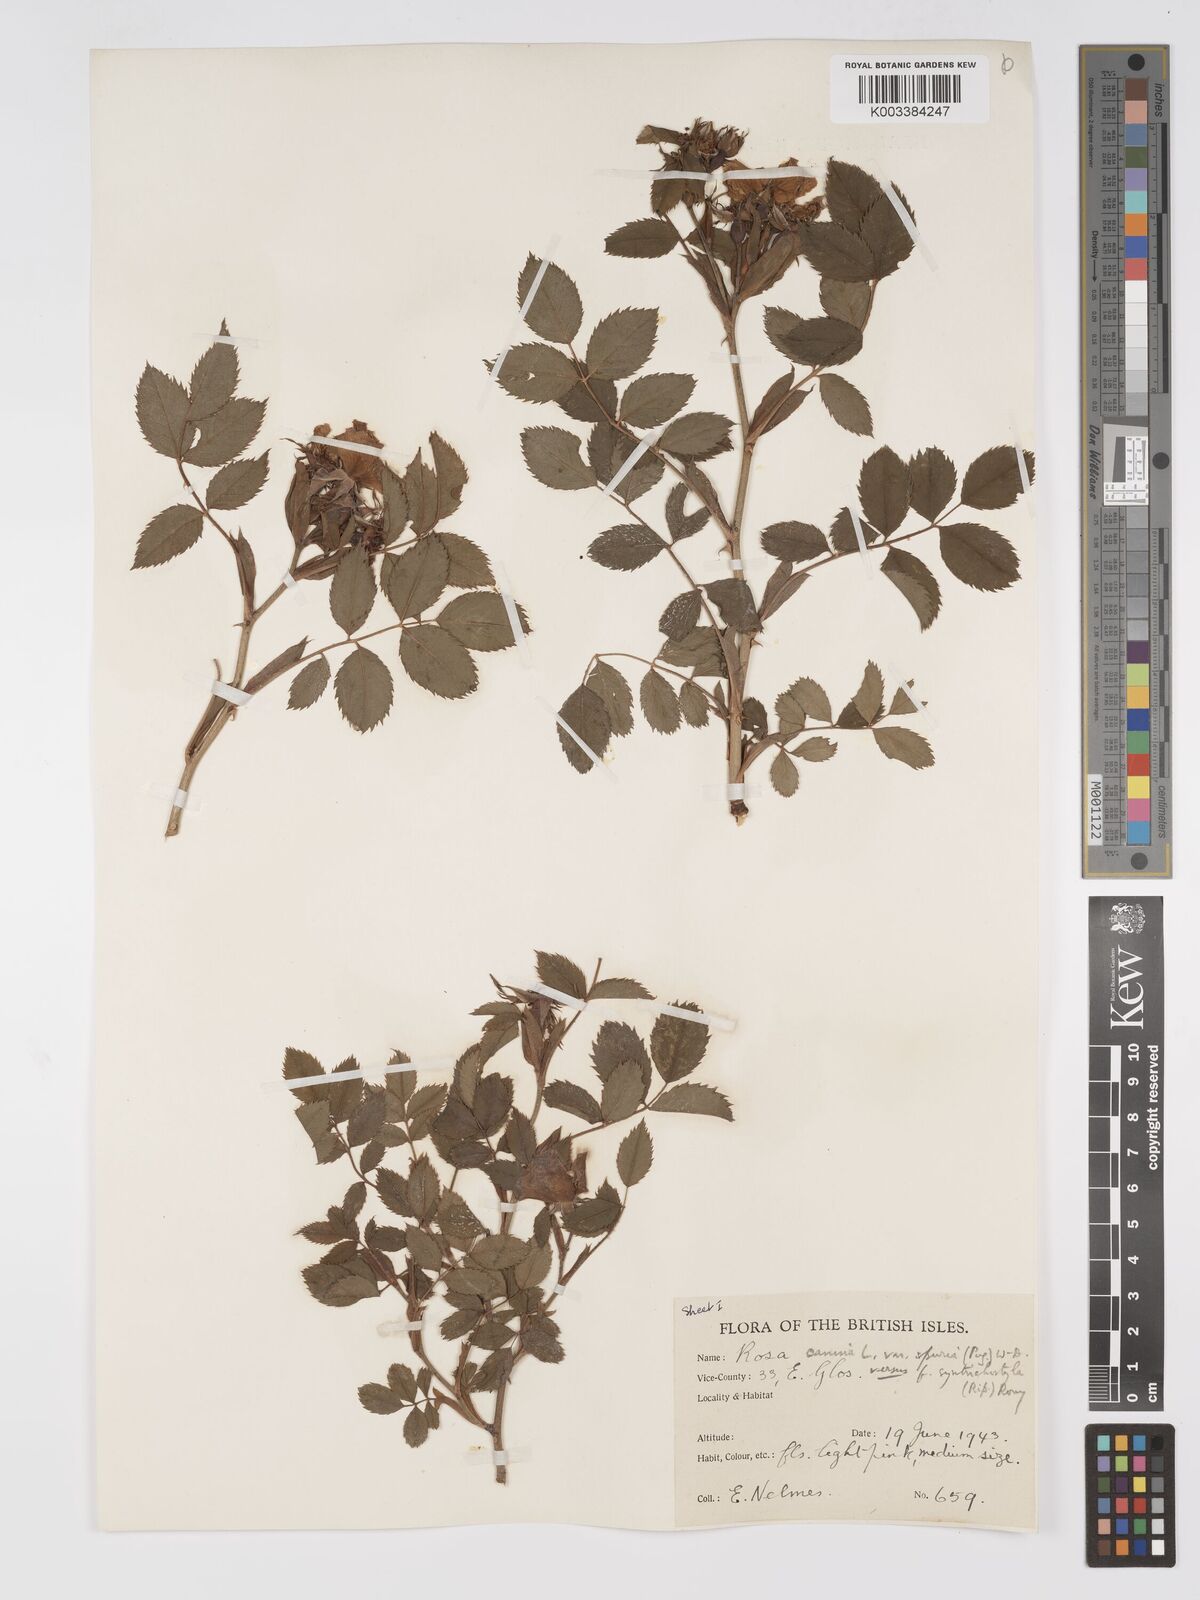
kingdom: Plantae
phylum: Tracheophyta
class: Magnoliopsida
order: Rosales
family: Rosaceae
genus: Rosa
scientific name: Rosa canina
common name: Dog rose
